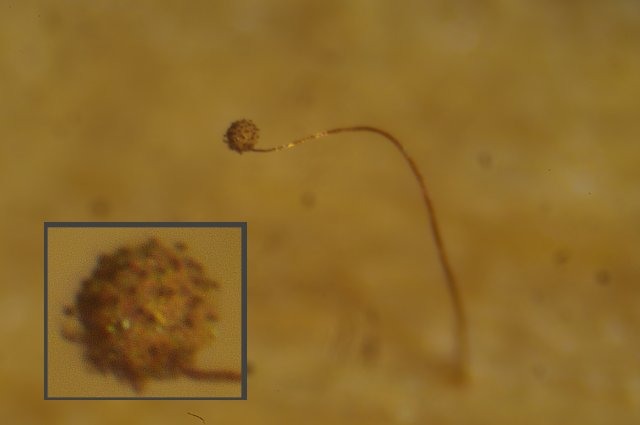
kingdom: Protozoa
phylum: Mycetozoa
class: Myxomycetes
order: Cribrariales
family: Cribrariaceae
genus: Cribraria
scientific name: Cribraria microcarpa
